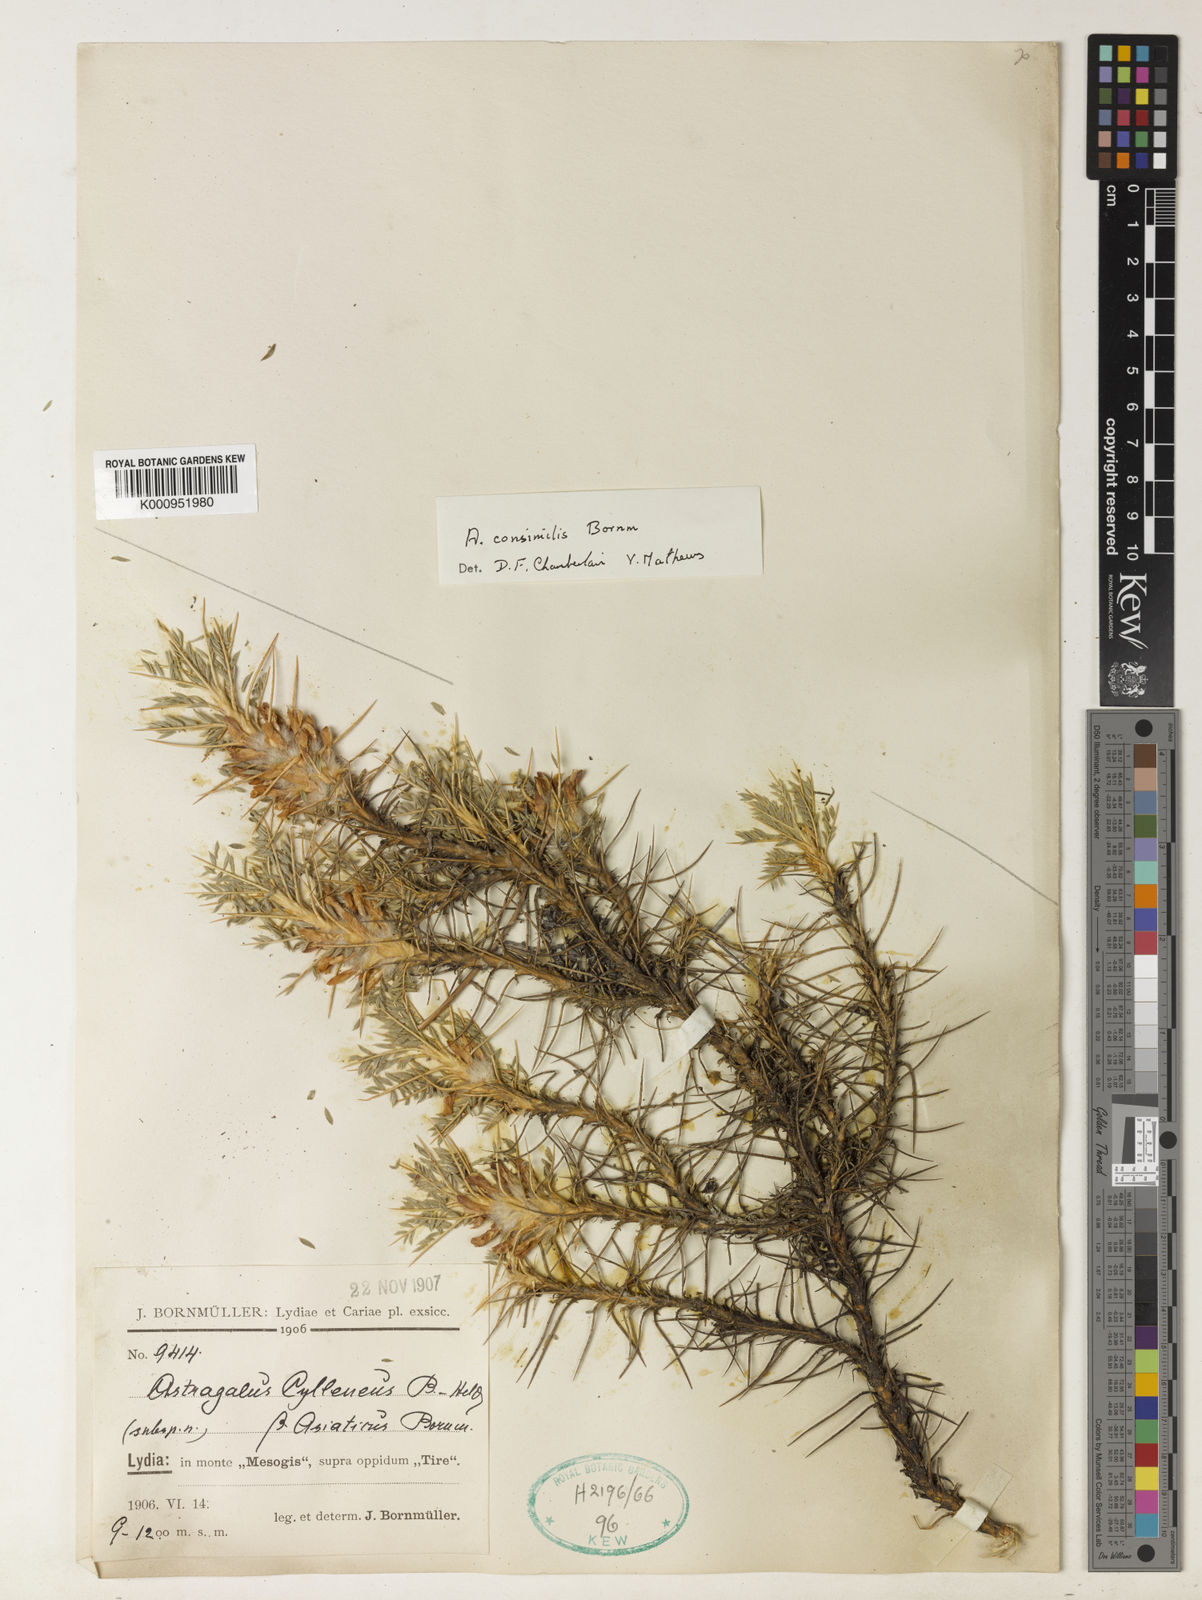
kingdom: Plantae
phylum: Tracheophyta
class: Magnoliopsida
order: Fabales
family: Fabaceae
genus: Astragalus
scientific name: Astragalus
